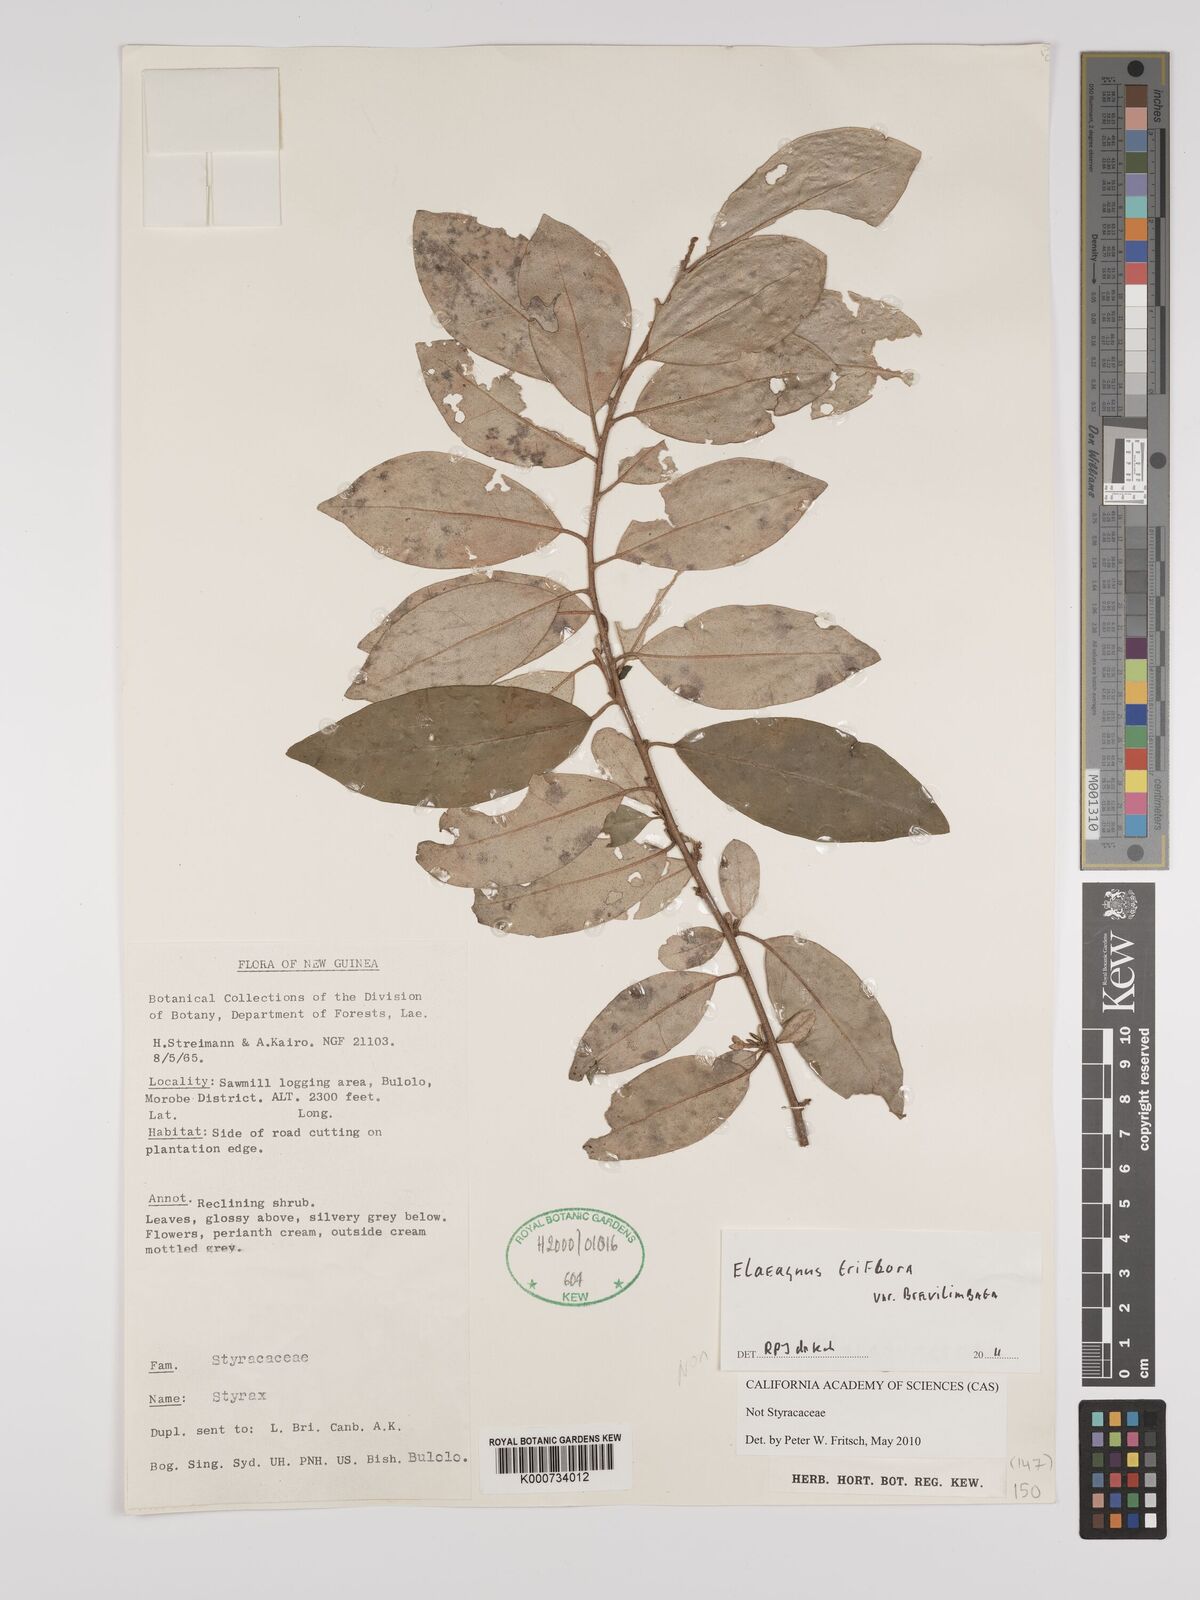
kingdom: Plantae
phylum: Tracheophyta
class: Magnoliopsida
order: Rosales
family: Elaeagnaceae
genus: Elaeagnus
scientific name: Elaeagnus triflora
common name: Millaa millaa-vine
